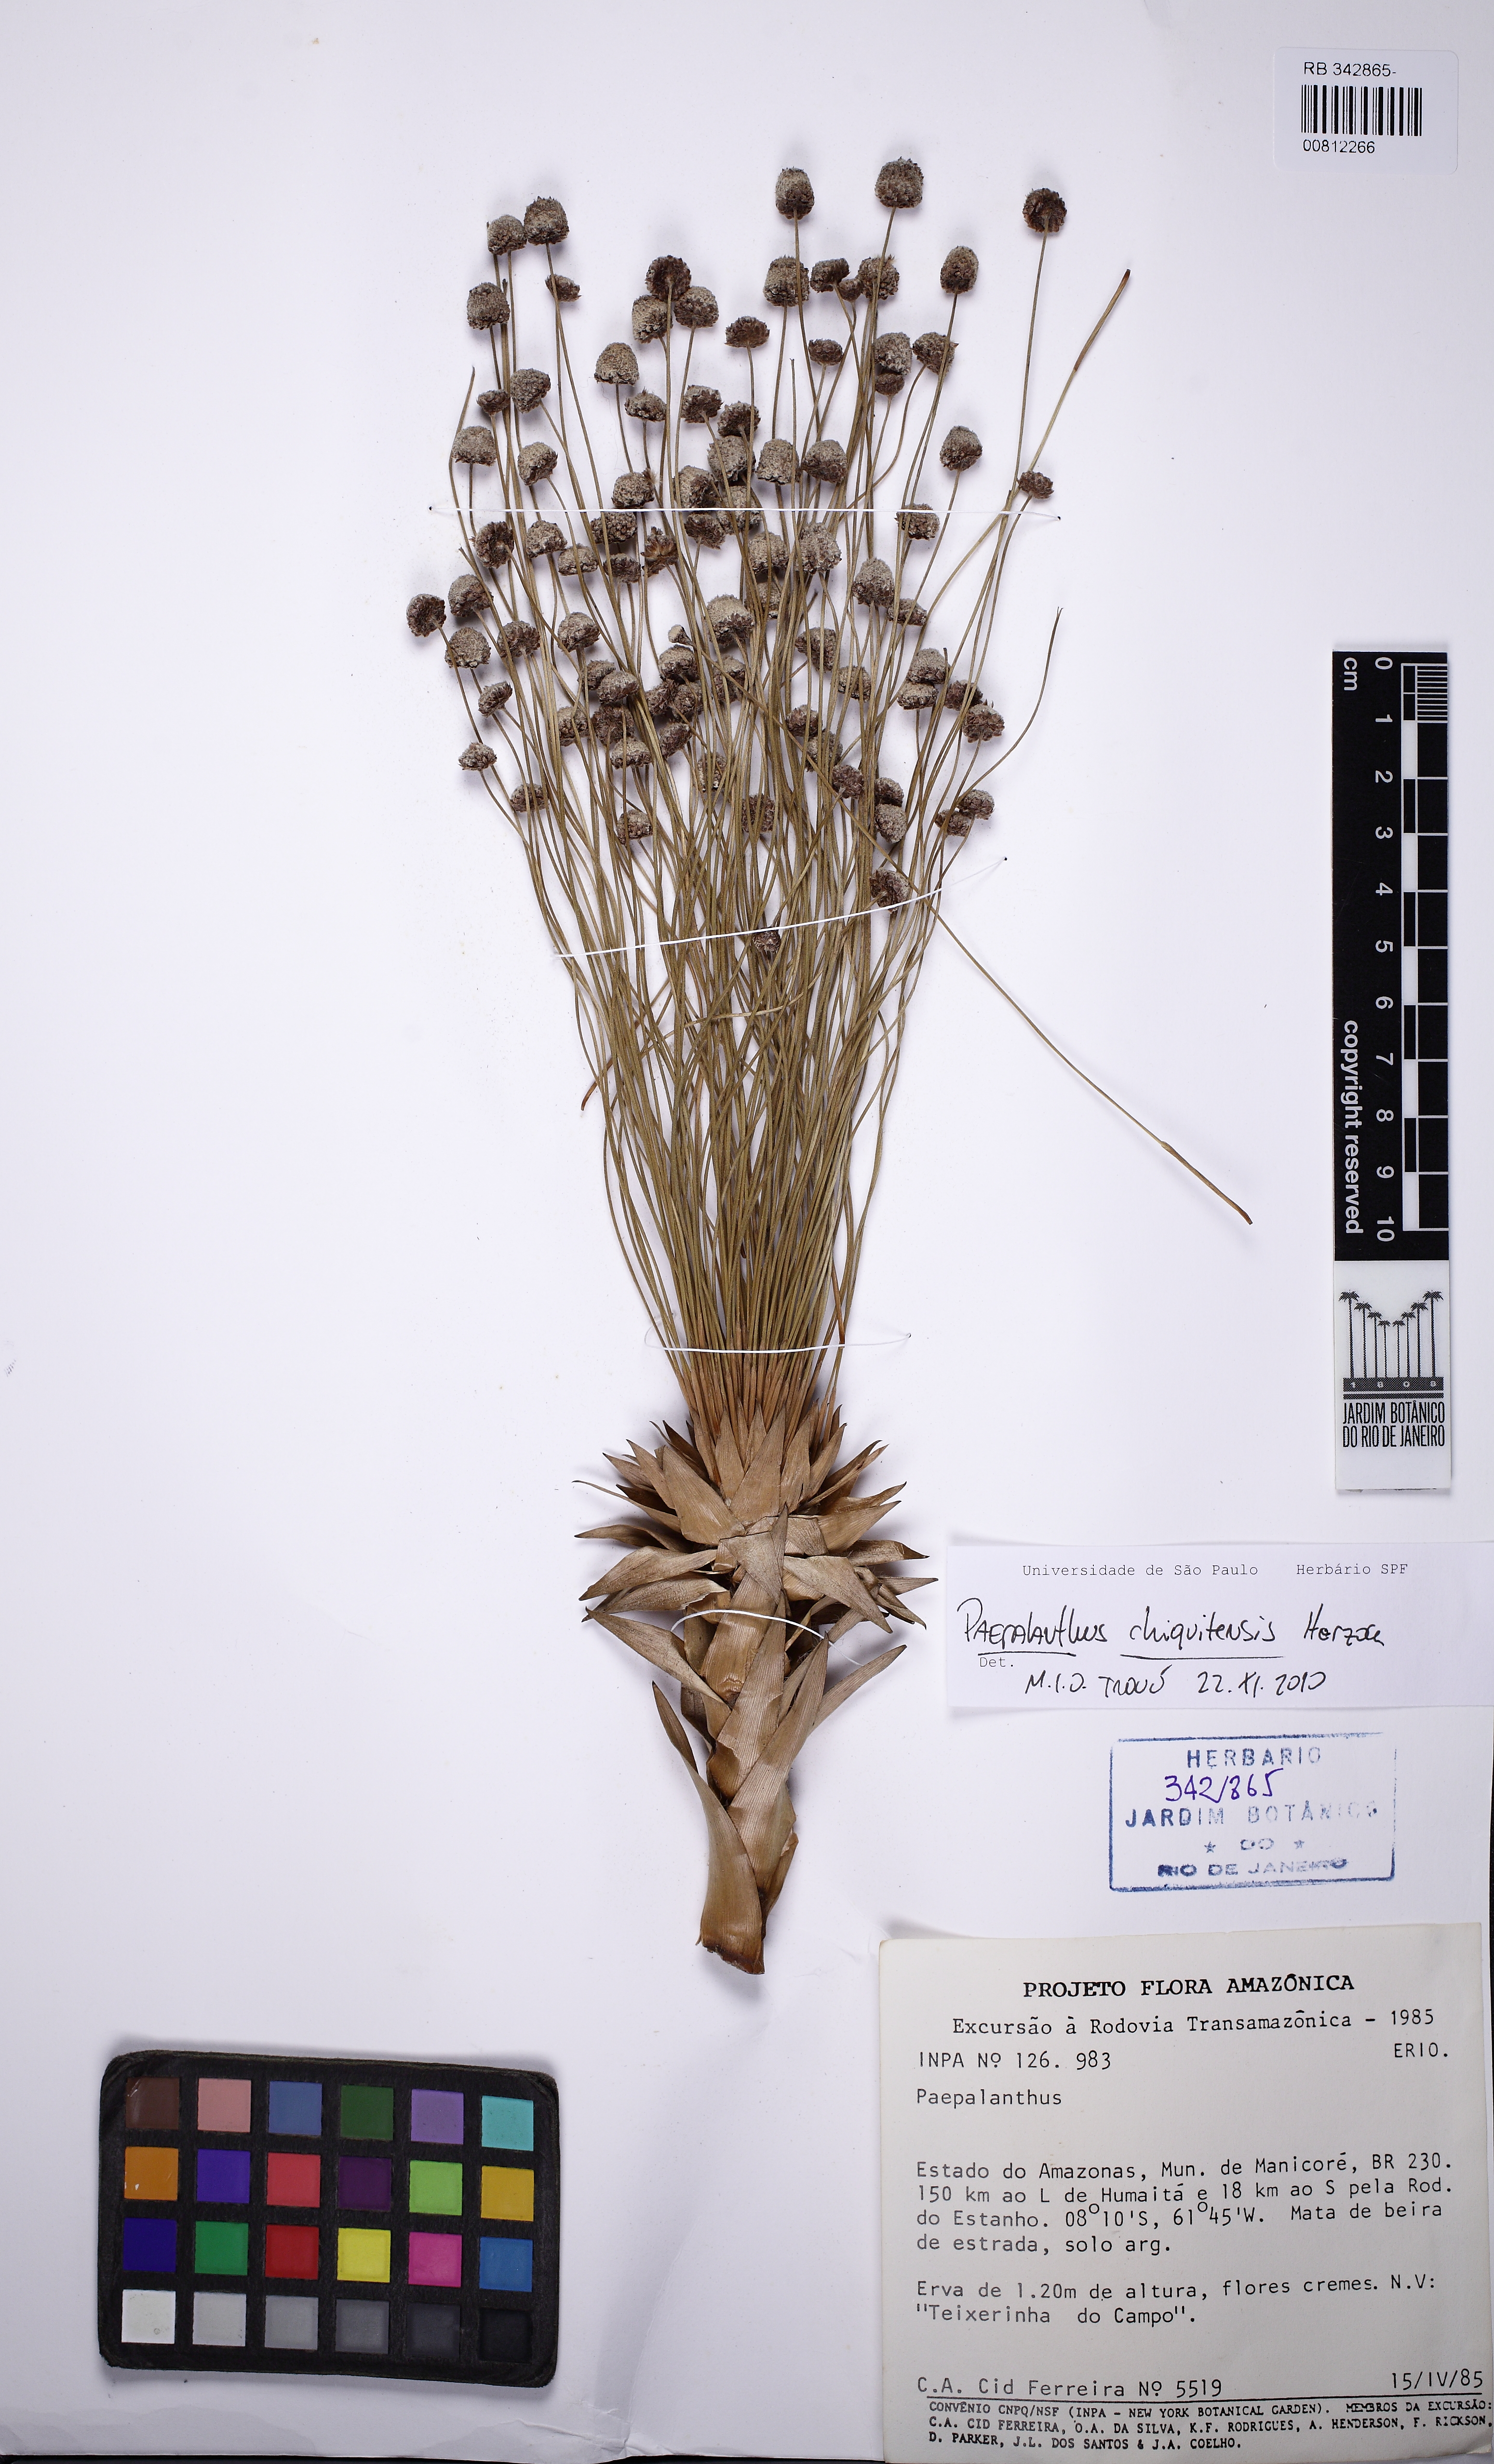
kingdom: Plantae
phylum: Tracheophyta
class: Liliopsida
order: Poales
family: Eriocaulaceae
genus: Paepalanthus
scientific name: Paepalanthus chiquitensis
